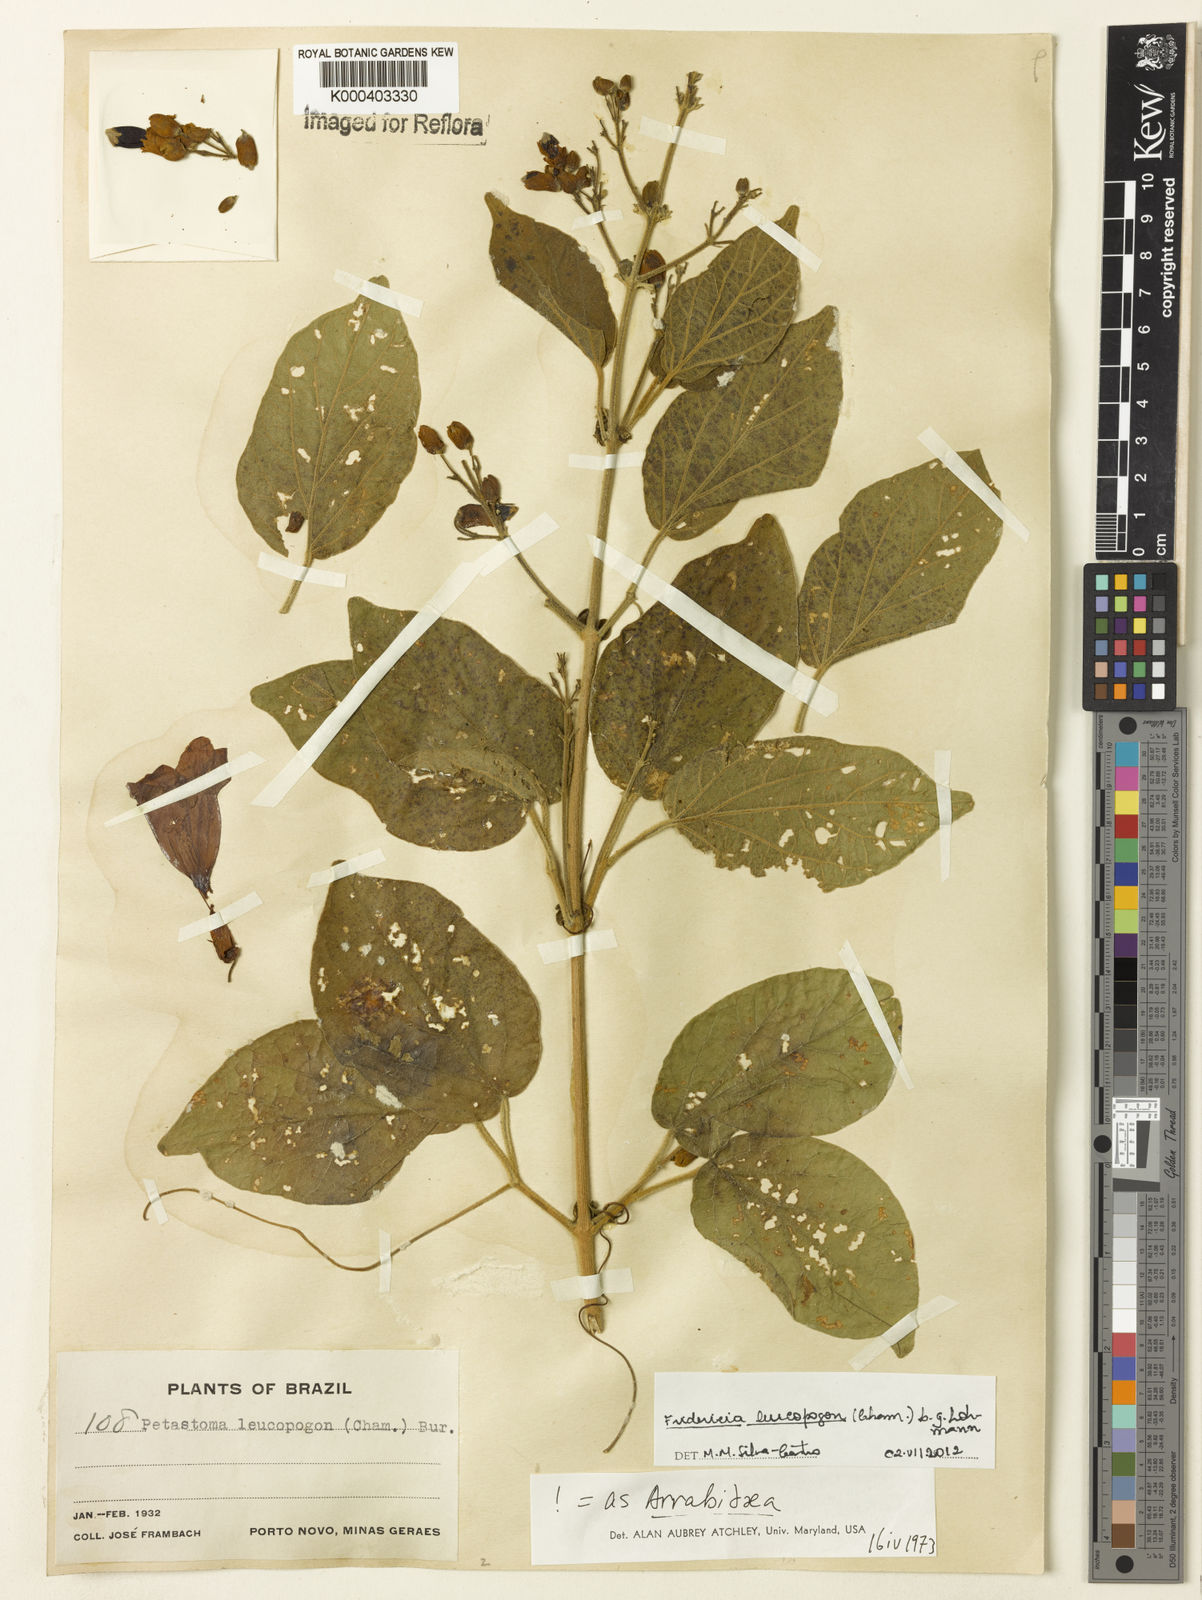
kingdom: Plantae
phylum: Tracheophyta
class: Magnoliopsida
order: Lamiales
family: Bignoniaceae
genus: Fridericia
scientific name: Fridericia leucopogon
